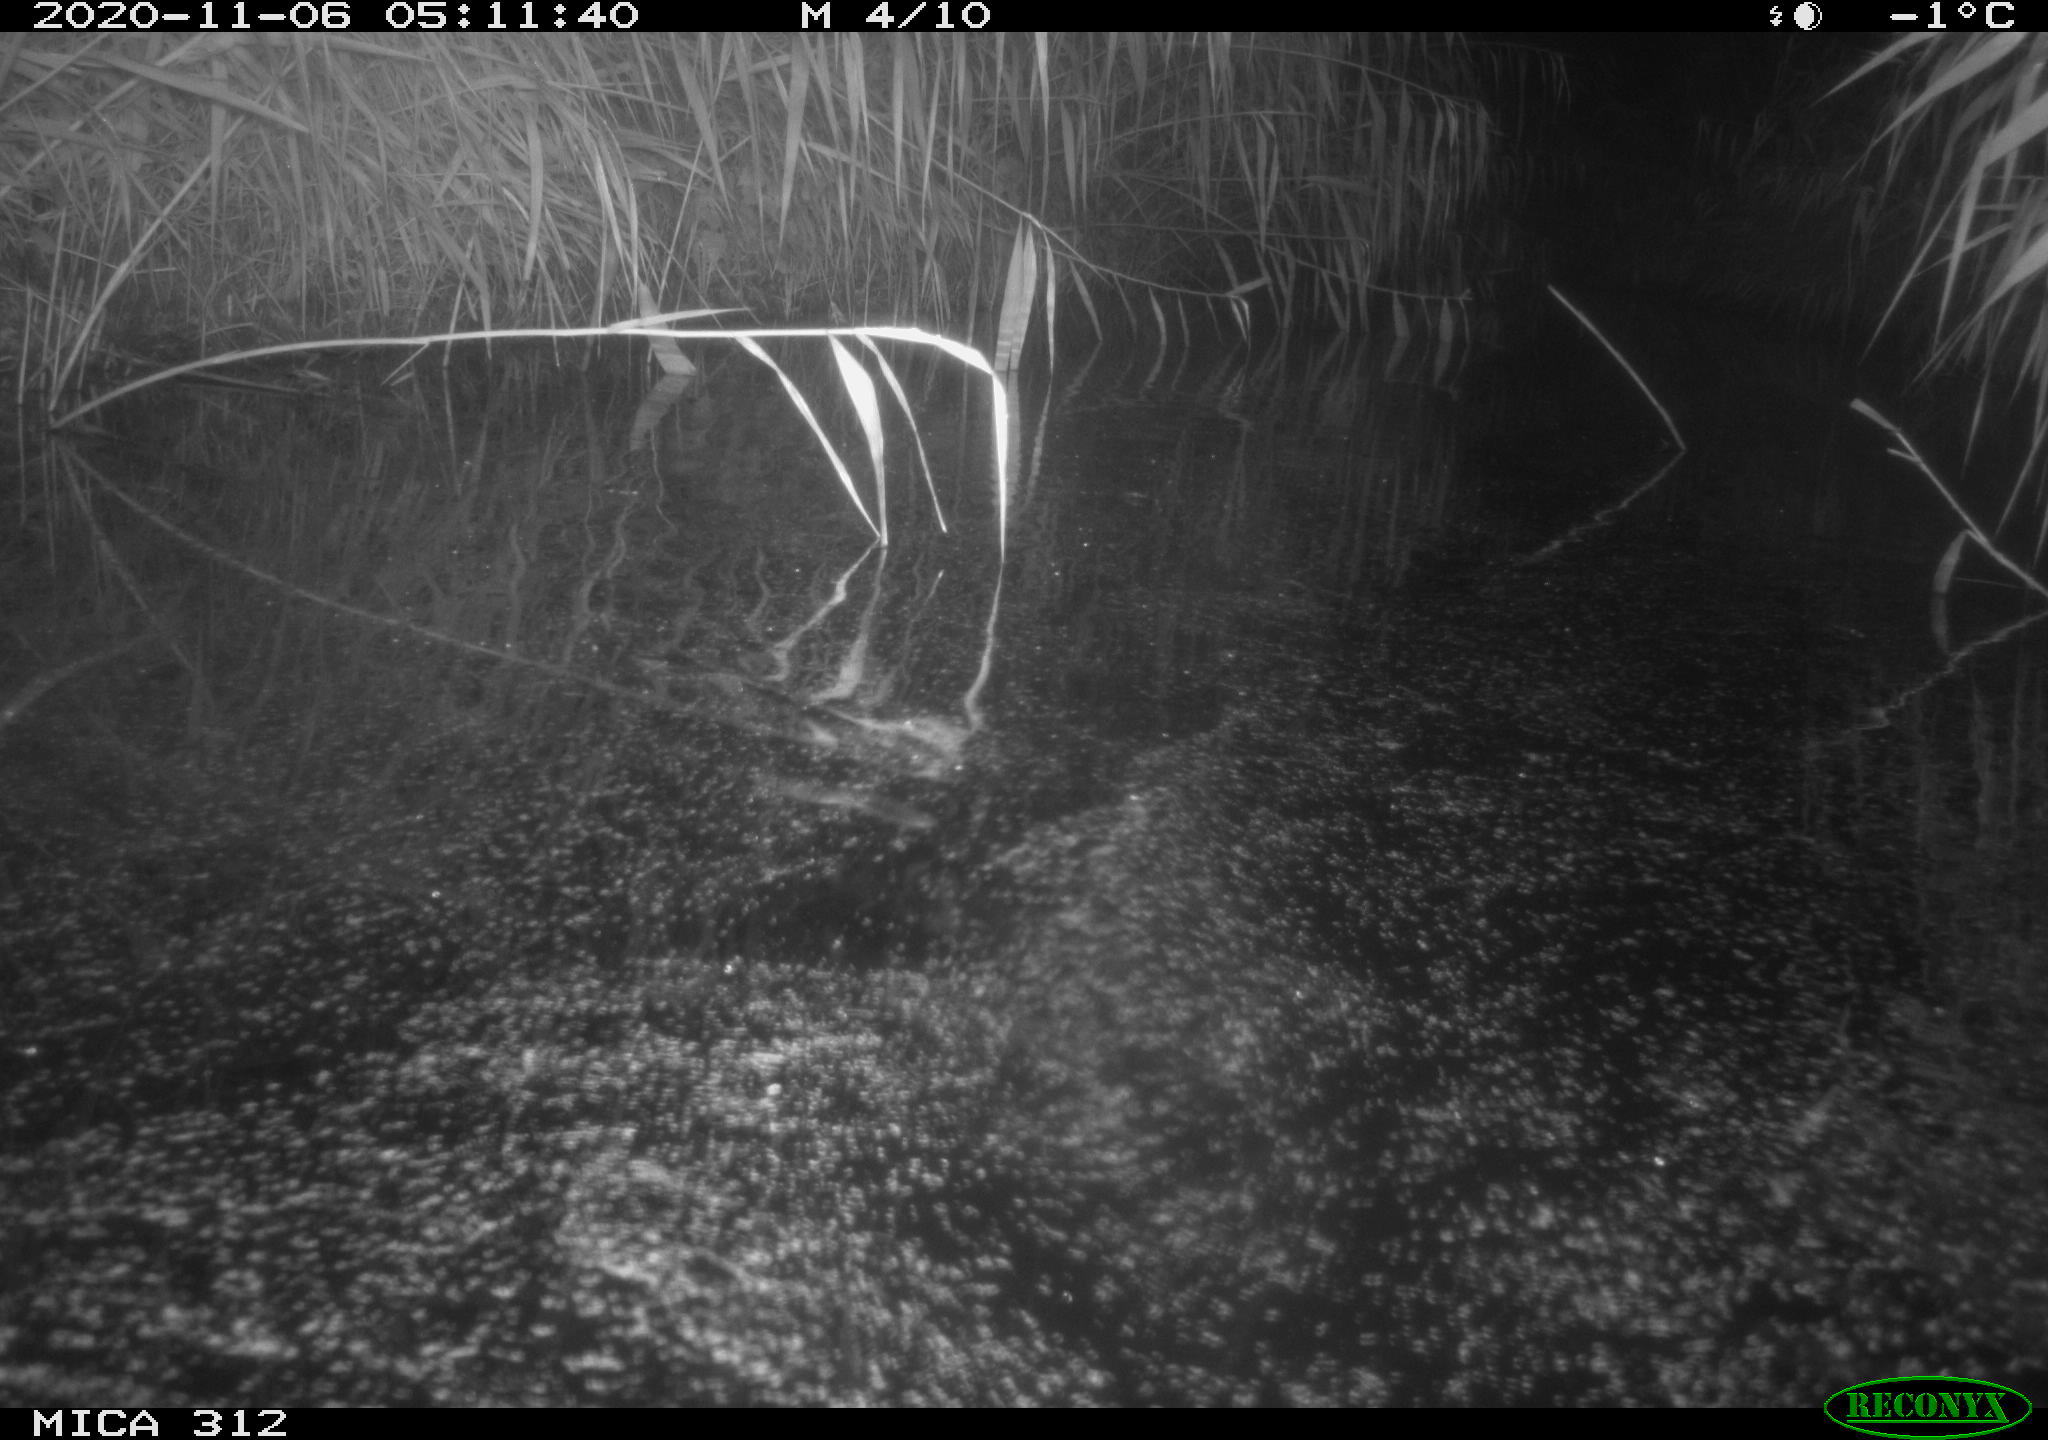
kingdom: Animalia
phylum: Chordata
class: Mammalia
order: Rodentia
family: Muridae
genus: Rattus
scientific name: Rattus norvegicus
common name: Brown rat
